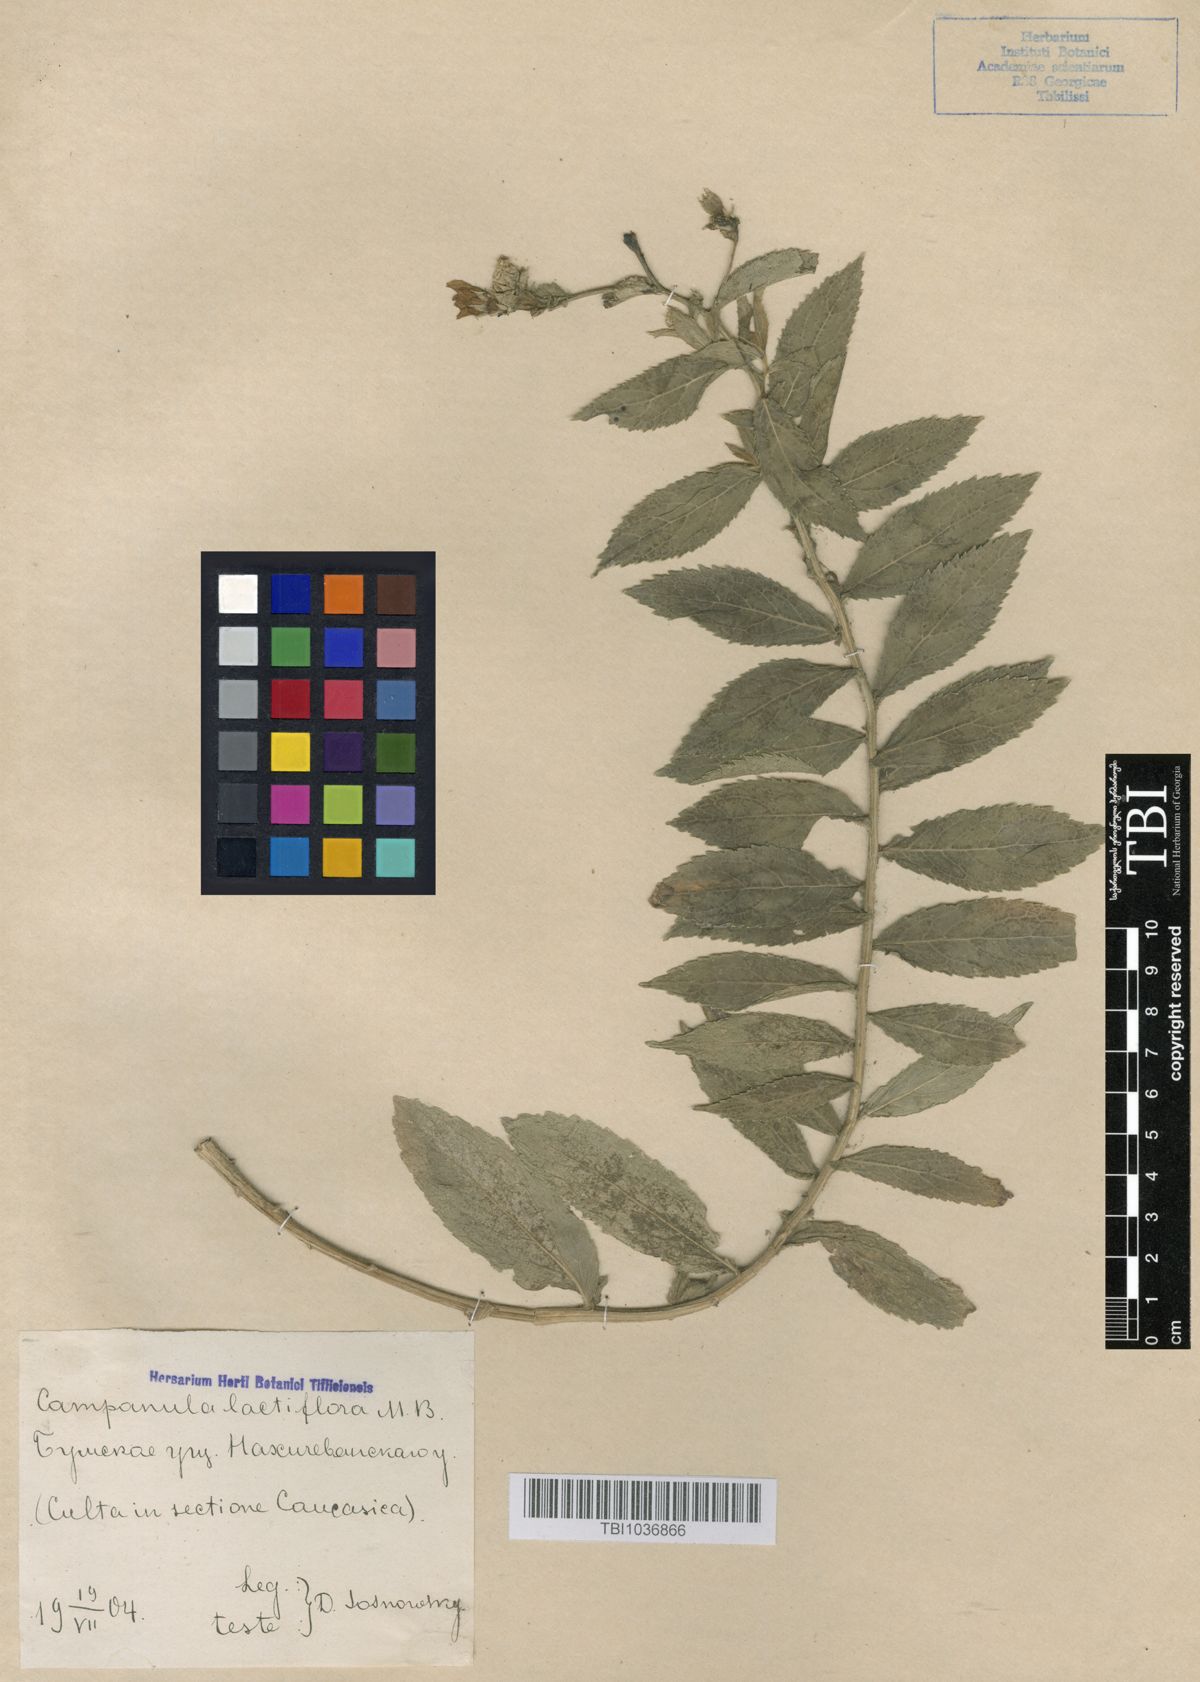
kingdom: Plantae
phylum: Tracheophyta
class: Magnoliopsida
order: Asterales
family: Campanulaceae
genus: Campanula
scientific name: Campanula lactiflora
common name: Milky bellflower
